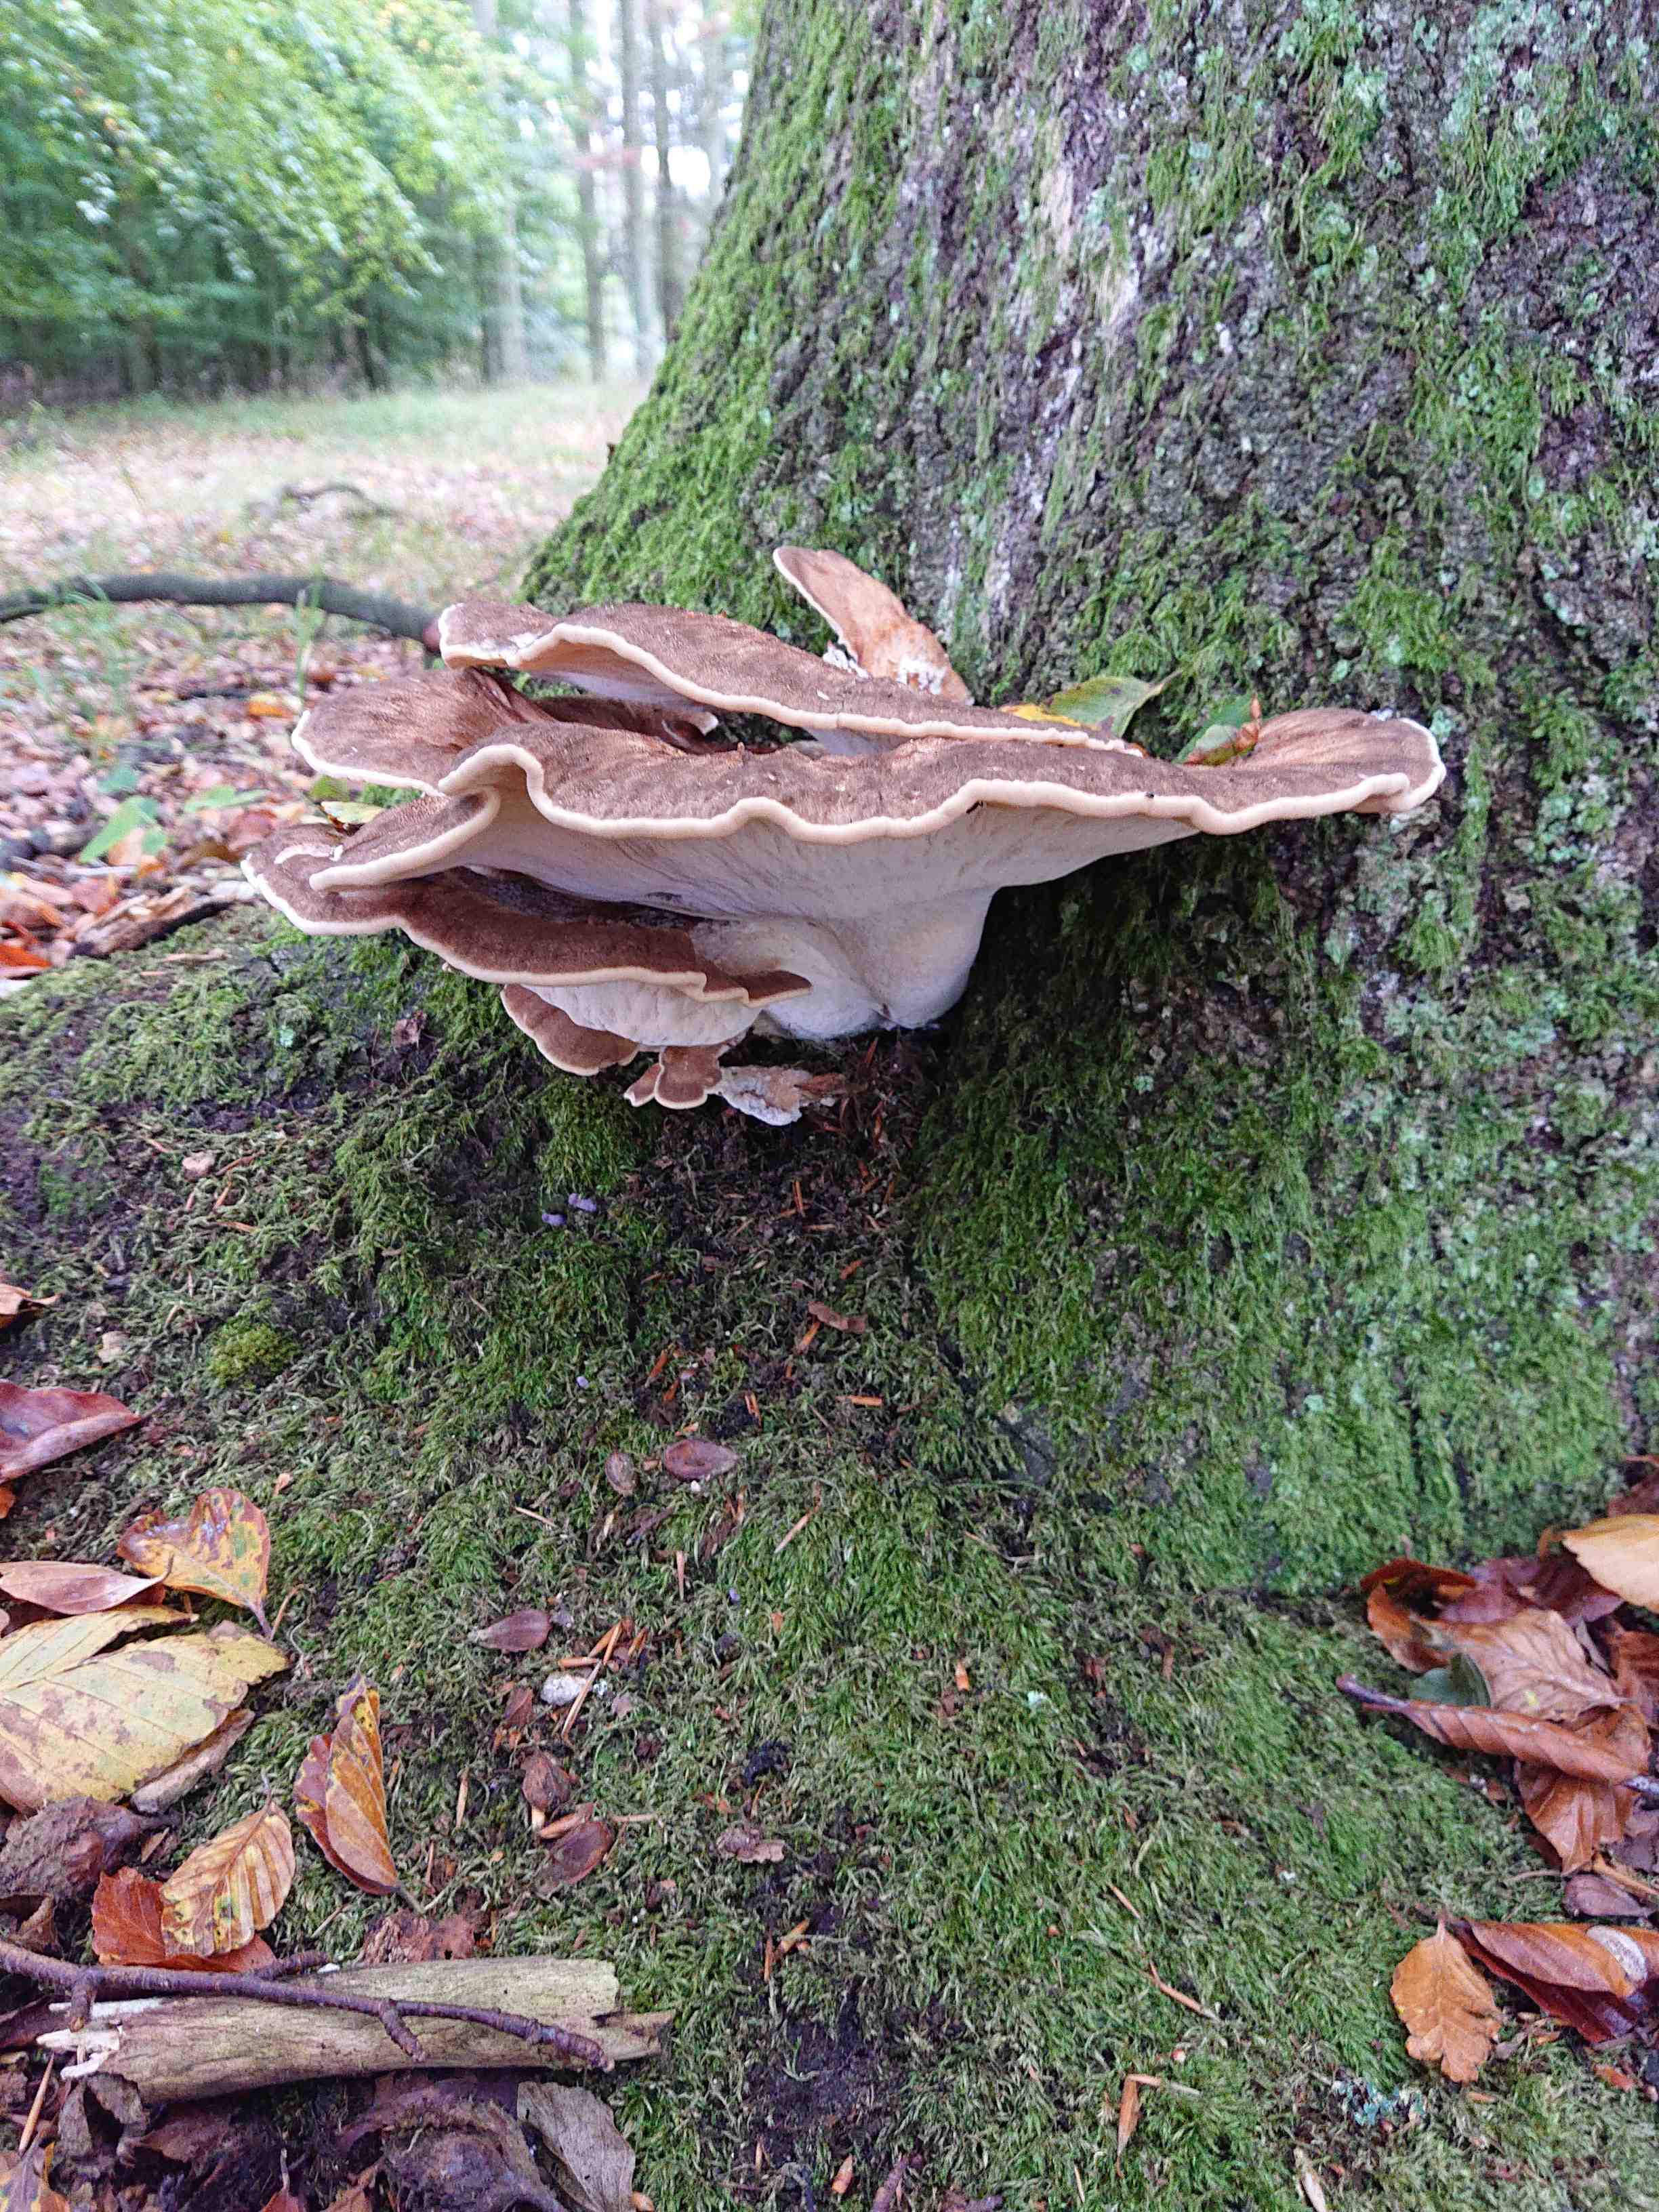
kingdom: Fungi
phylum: Basidiomycota
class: Agaricomycetes
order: Polyporales
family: Meripilaceae
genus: Meripilus
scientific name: Meripilus giganteus
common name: kæmpeporesvamp
